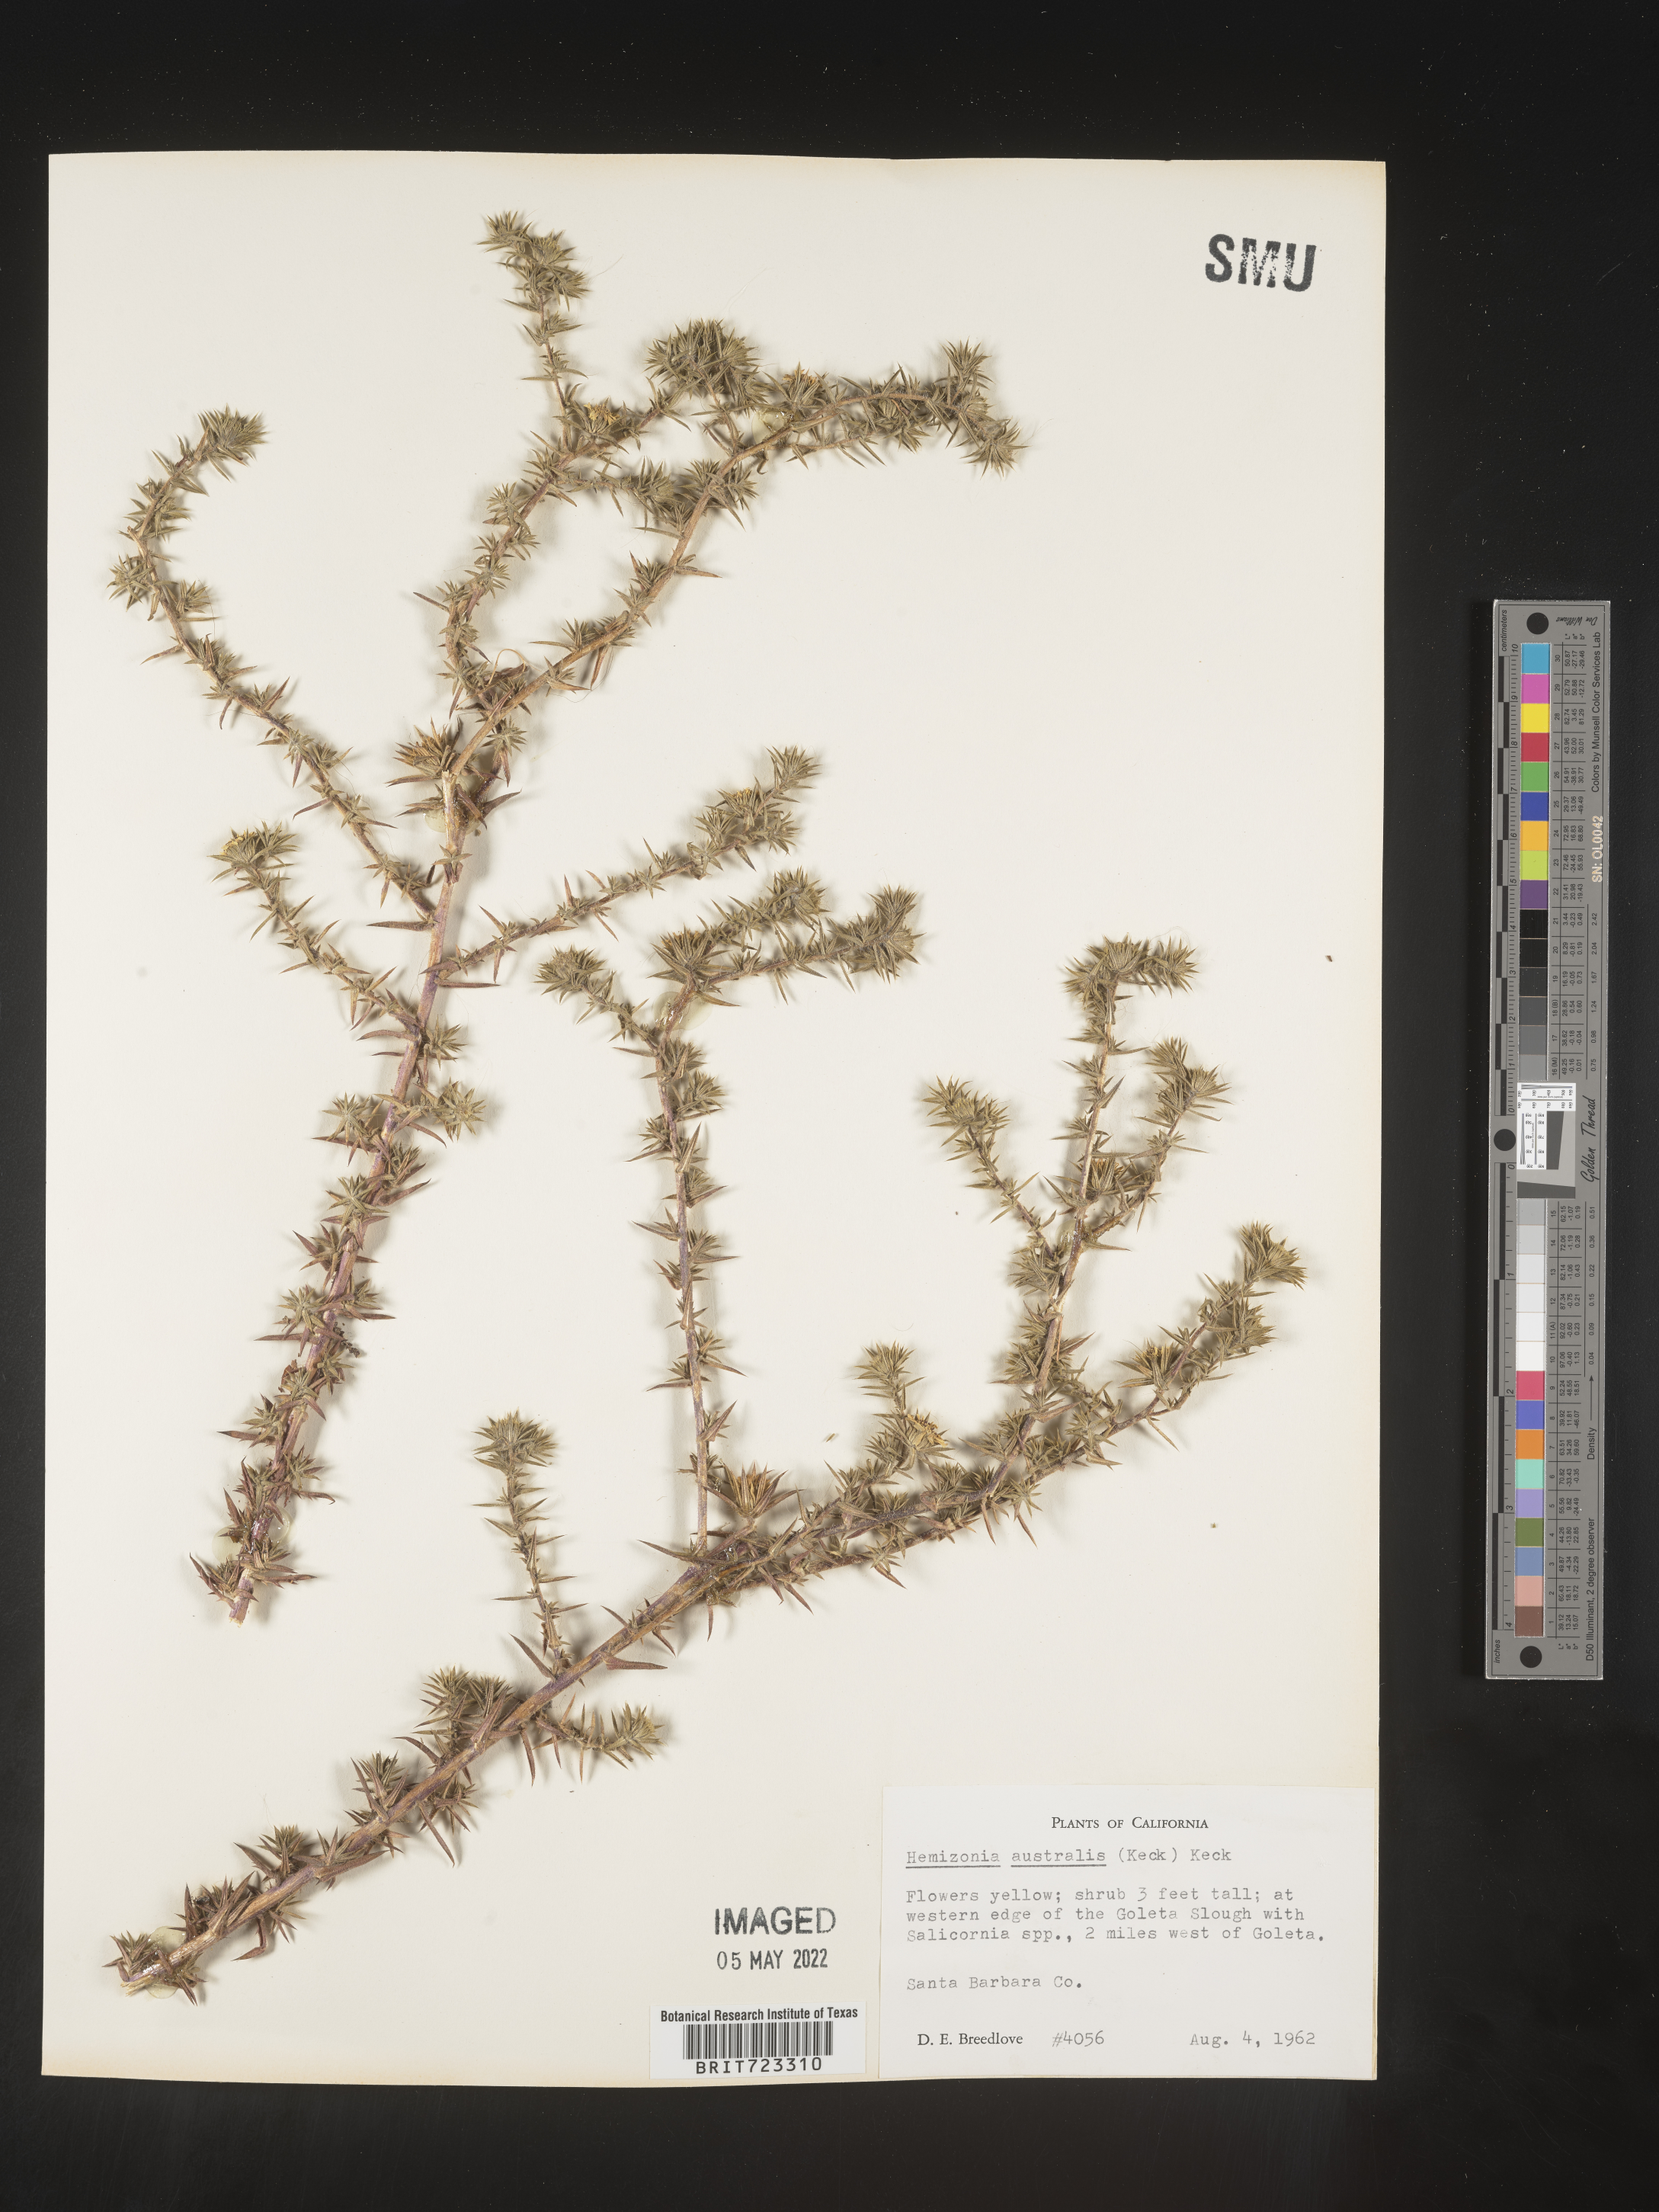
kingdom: Plantae
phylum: Tracheophyta
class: Magnoliopsida
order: Asterales
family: Asteraceae
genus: Hemizonia
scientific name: Hemizonia
